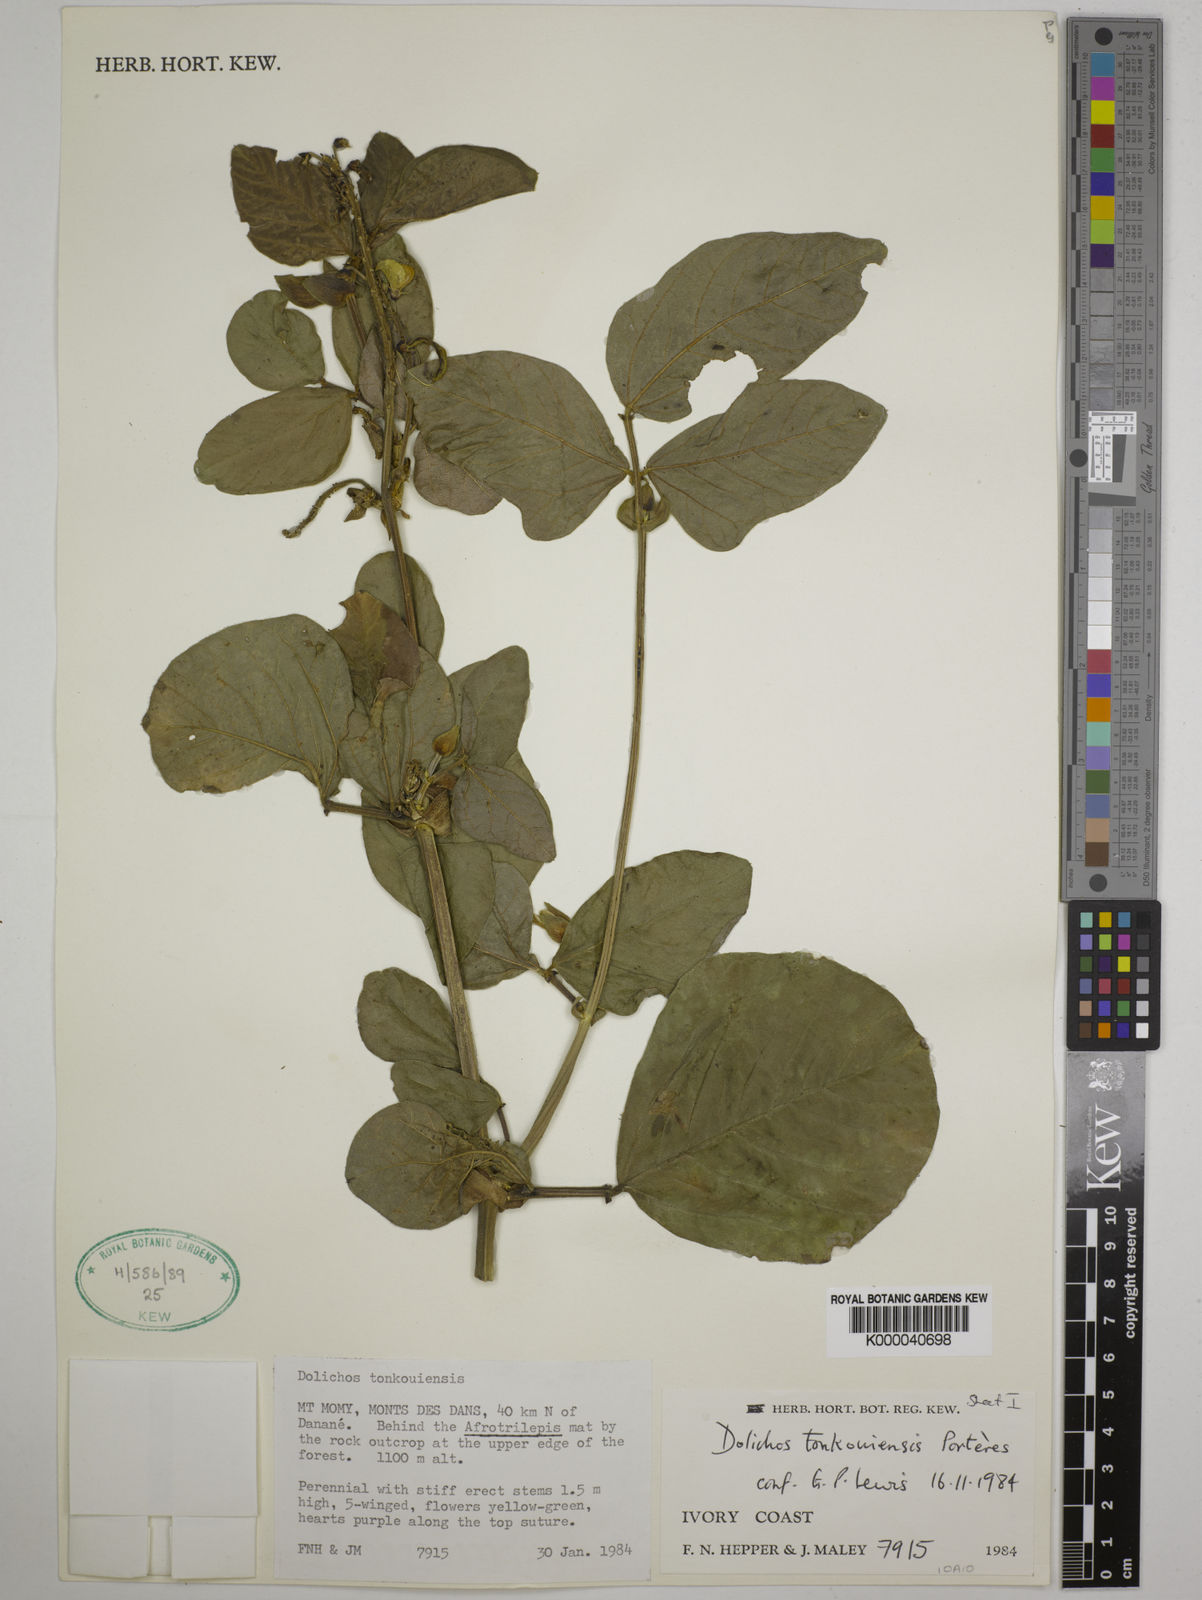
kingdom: Plantae
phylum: Tracheophyta
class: Magnoliopsida
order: Fabales
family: Fabaceae
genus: Dolichos
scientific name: Dolichos tonkouiensis
